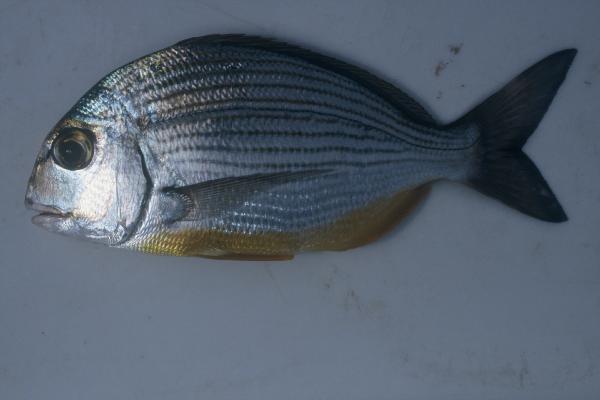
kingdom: Animalia
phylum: Chordata
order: Perciformes
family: Sparidae
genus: Rhabdosargus
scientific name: Rhabdosargus holubi
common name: Cape stumpnose
